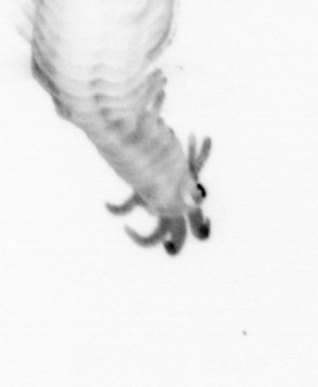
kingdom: Animalia
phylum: Annelida
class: Polychaeta
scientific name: Polychaeta
